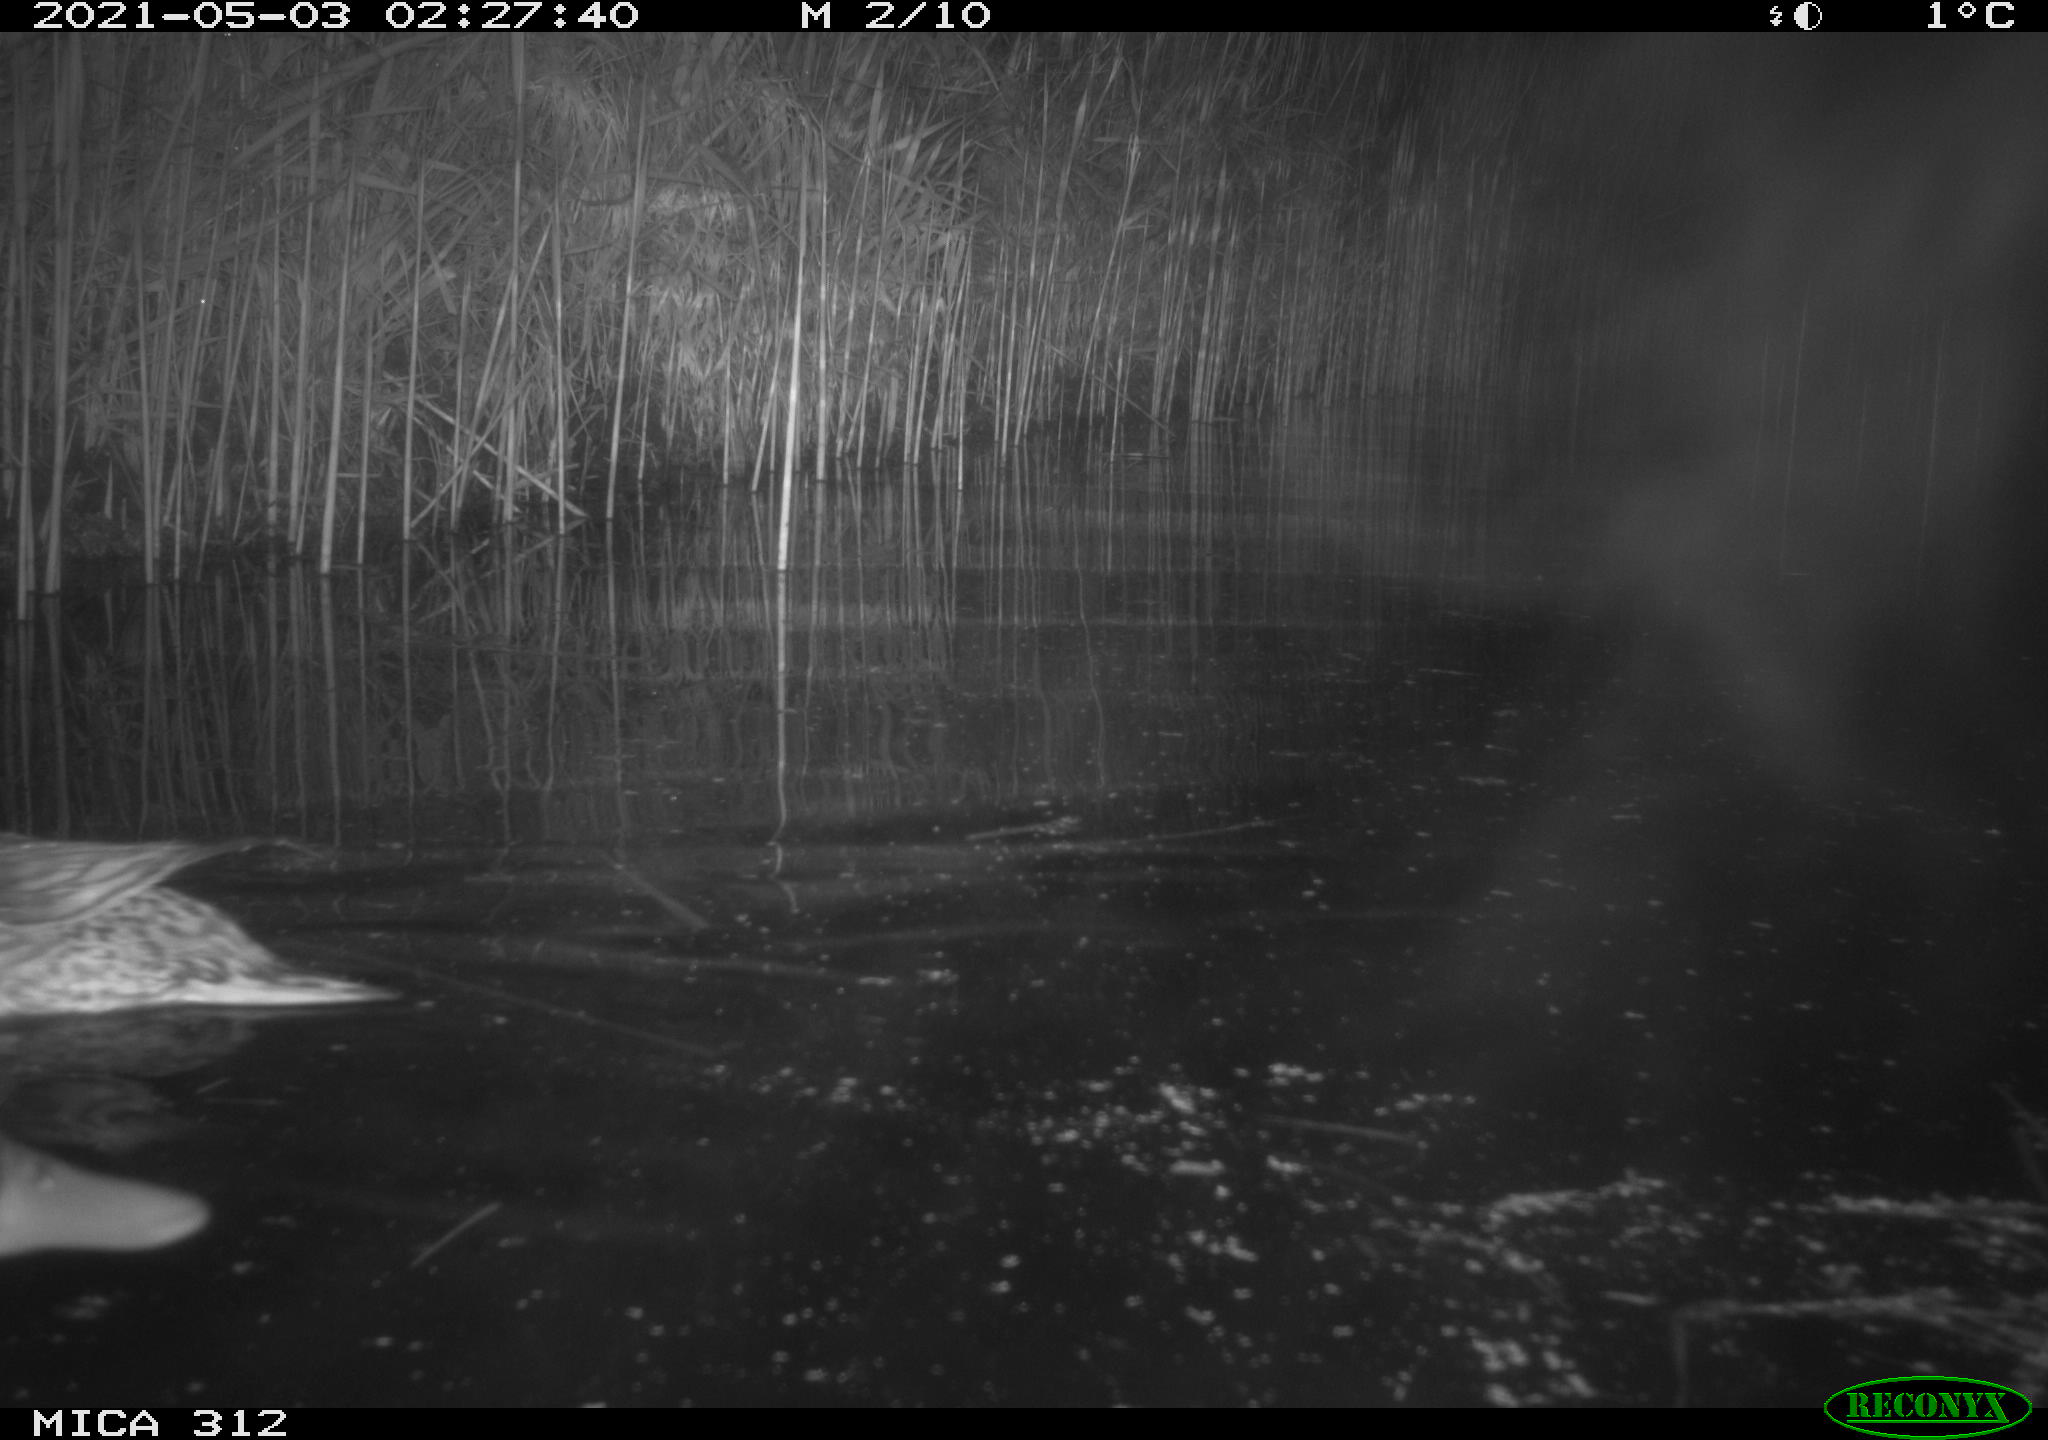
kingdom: Animalia
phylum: Chordata
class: Aves
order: Anseriformes
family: Anatidae
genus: Anas
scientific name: Anas platyrhynchos
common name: Mallard
